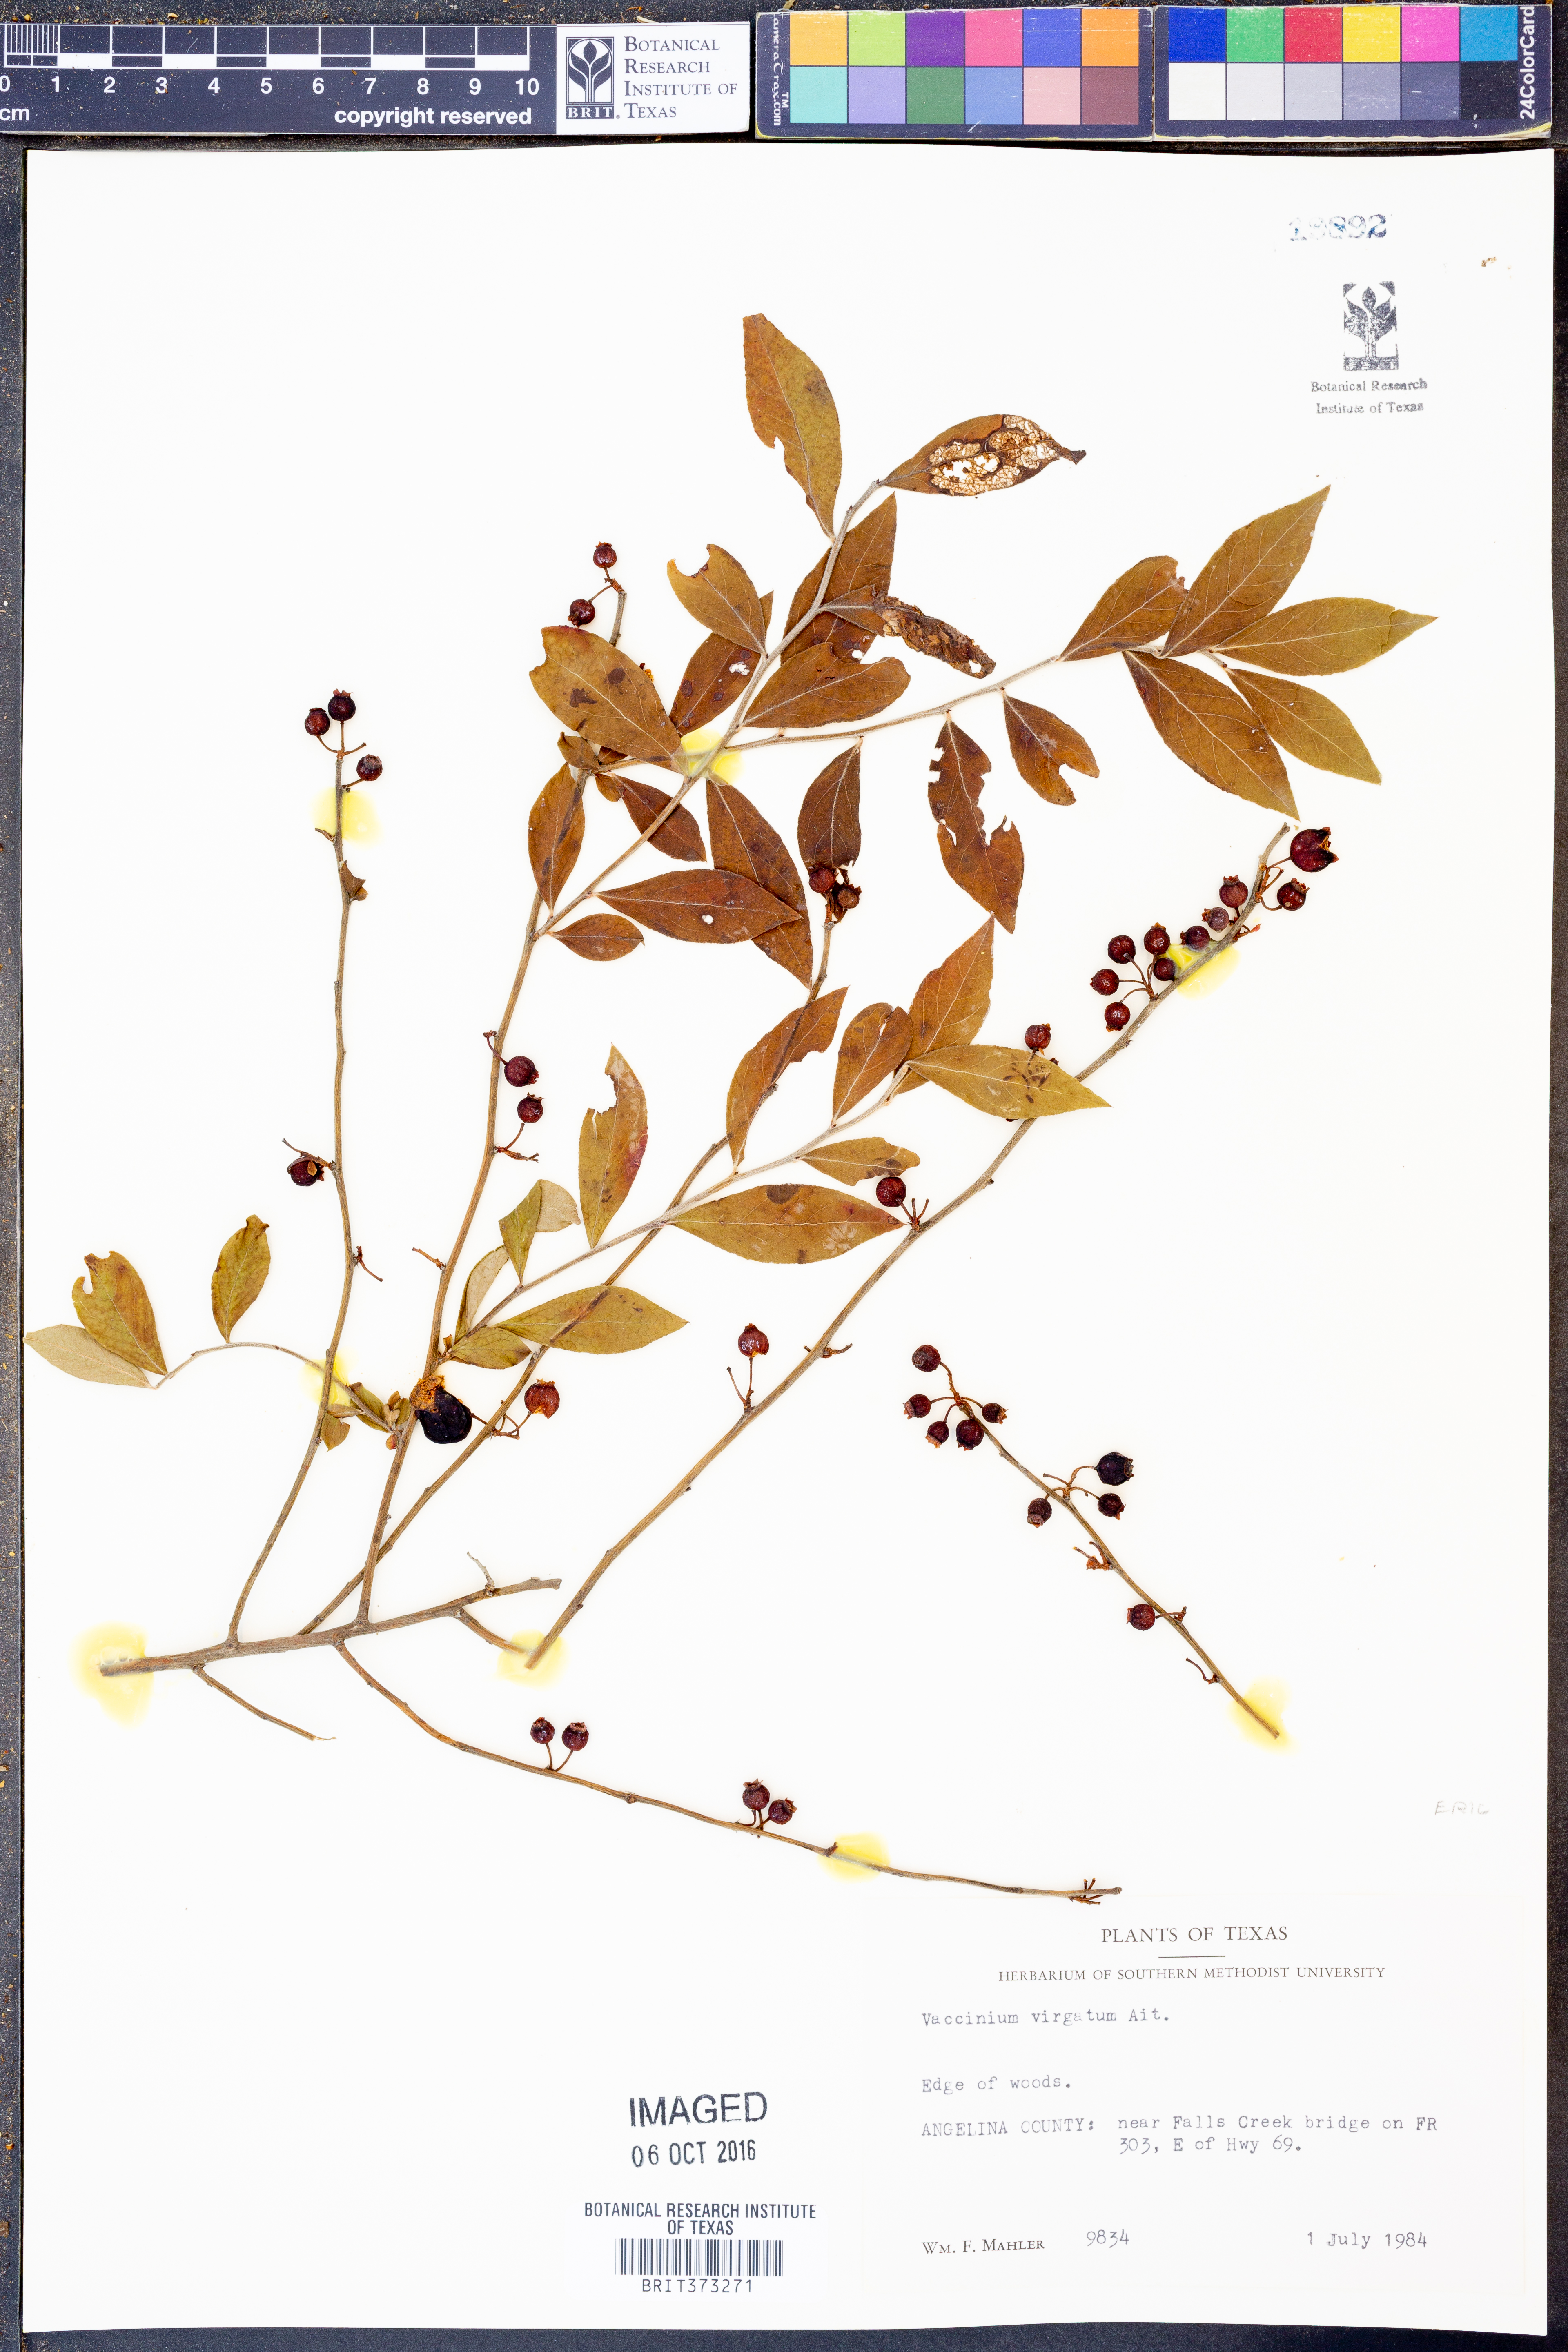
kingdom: Plantae
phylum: Tracheophyta
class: Magnoliopsida
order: Ericales
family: Ericaceae
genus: Vaccinium
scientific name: Vaccinium corymbosum
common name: Blueberry
